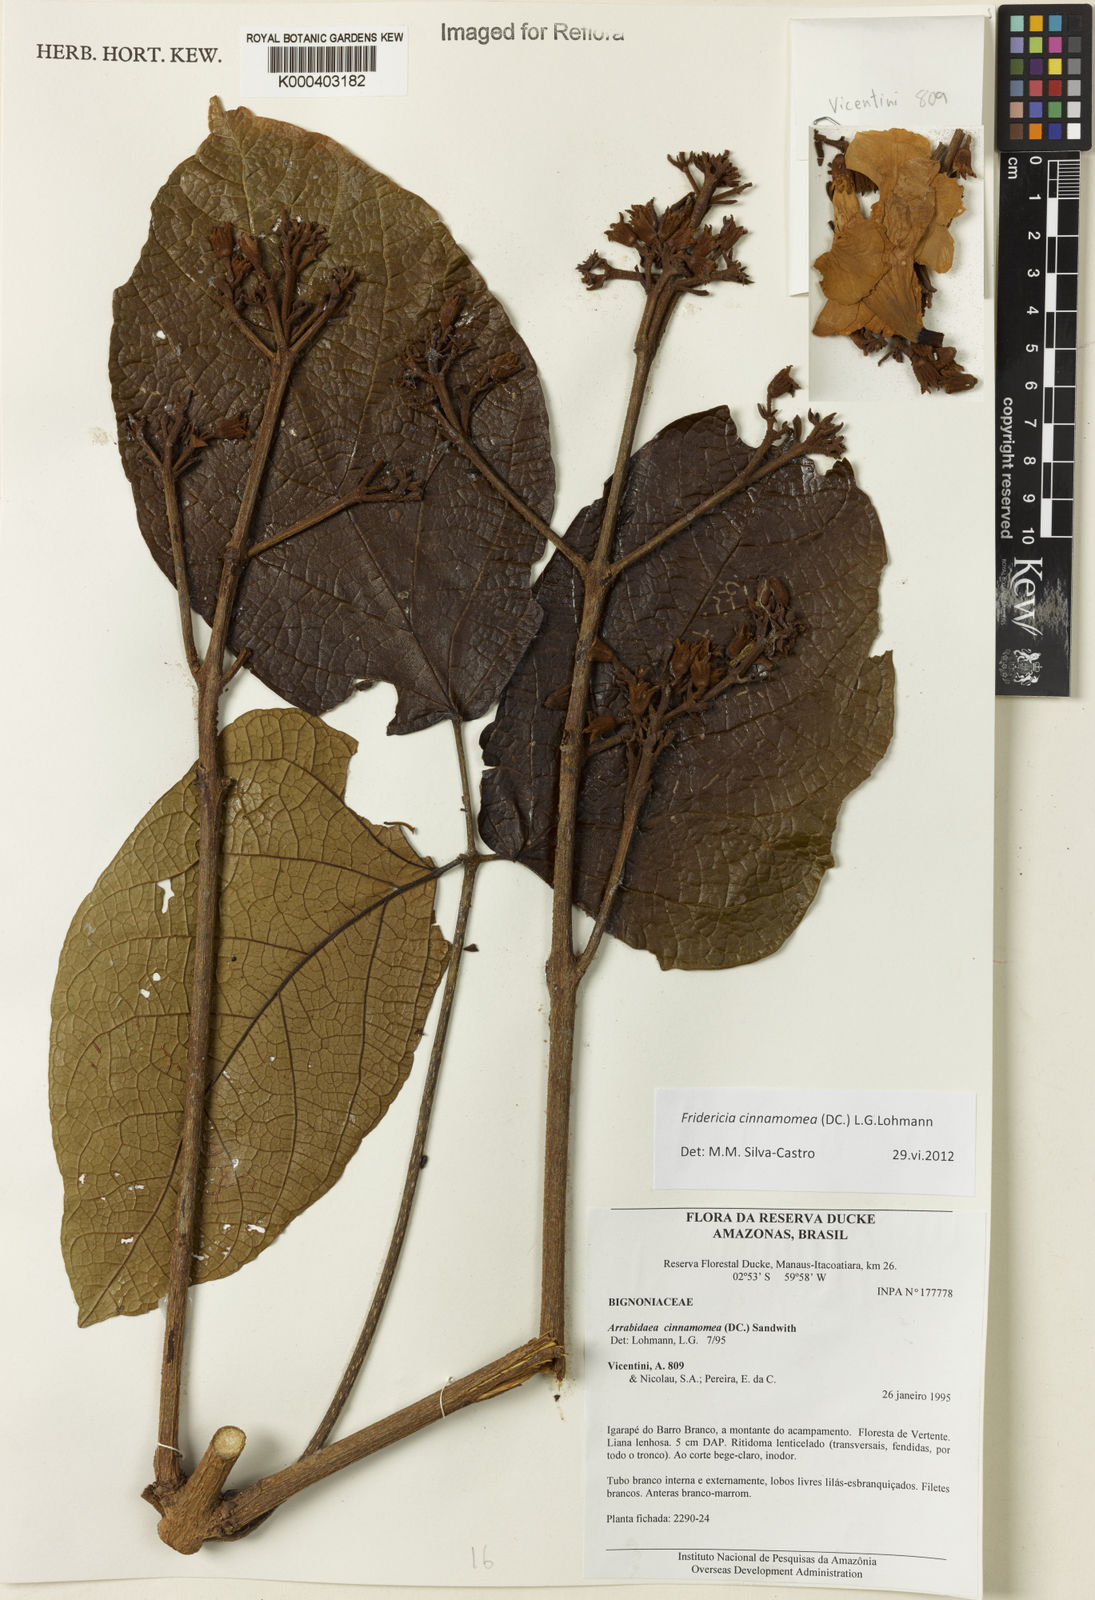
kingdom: Plantae
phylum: Tracheophyta
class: Magnoliopsida
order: Lamiales
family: Bignoniaceae
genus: Fridericia
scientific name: Fridericia cinnamomea
